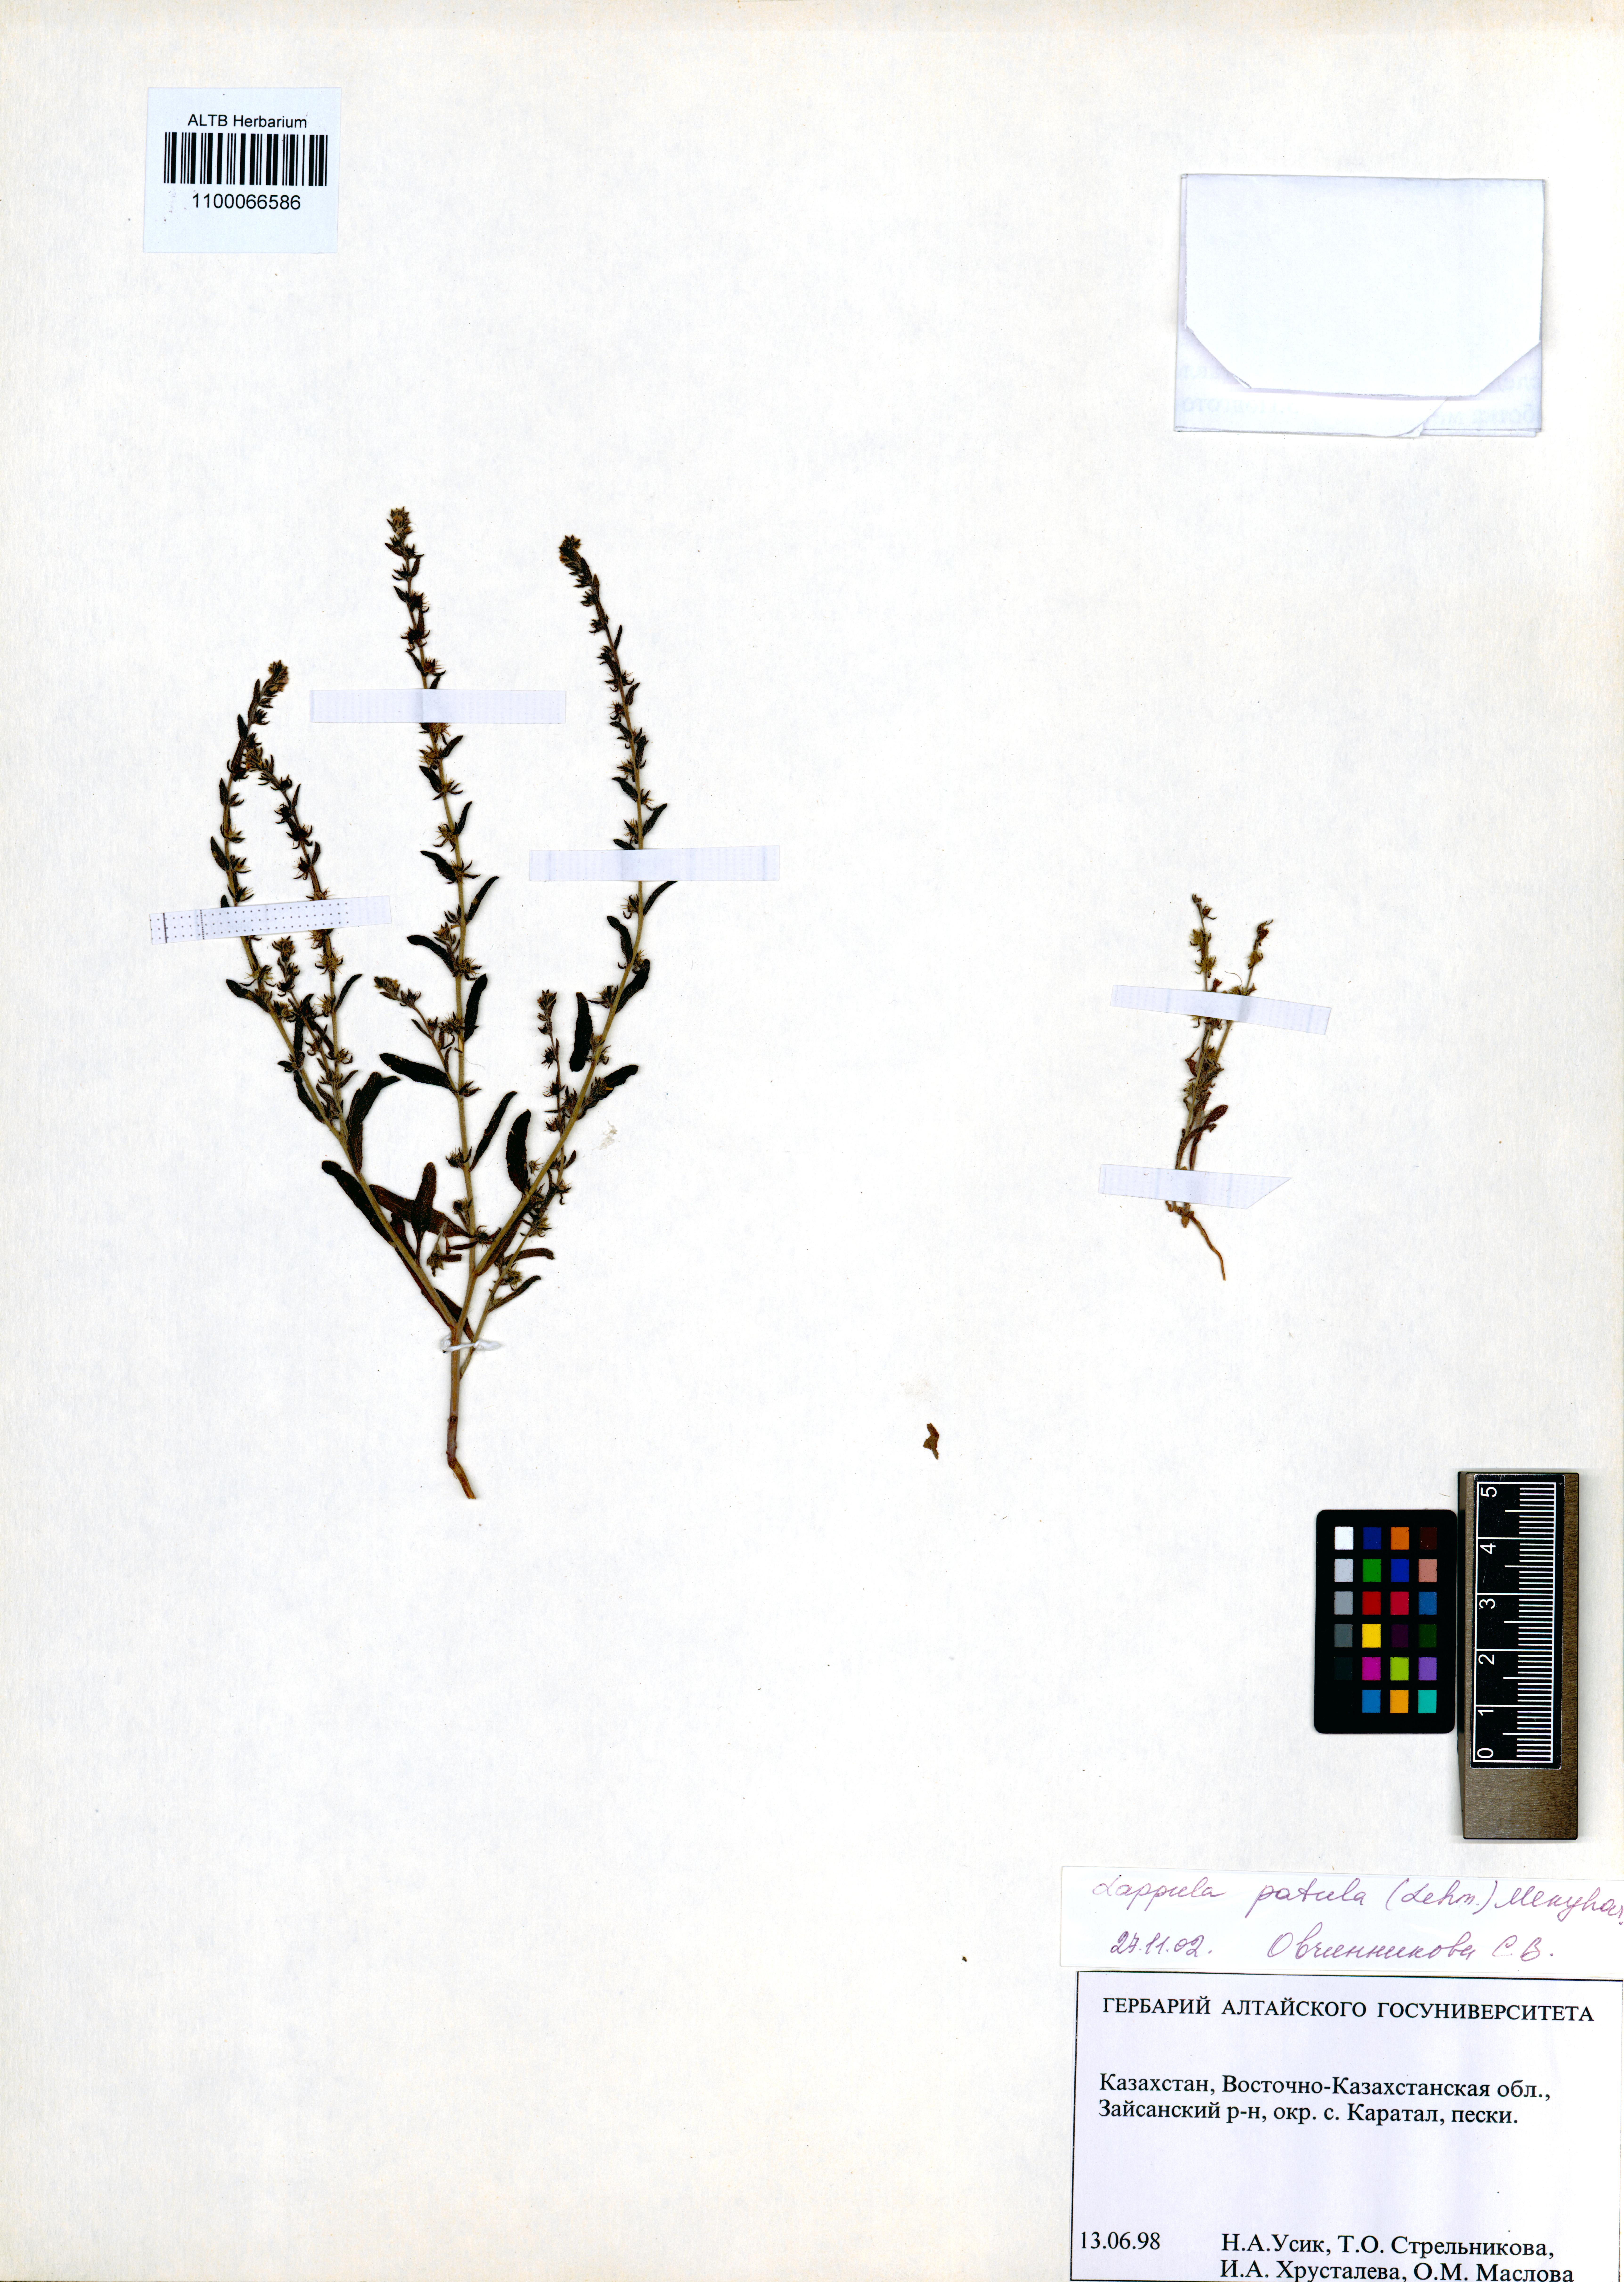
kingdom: Plantae
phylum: Tracheophyta
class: Magnoliopsida
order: Boraginales
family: Boraginaceae
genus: Lappula
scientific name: Lappula patula
